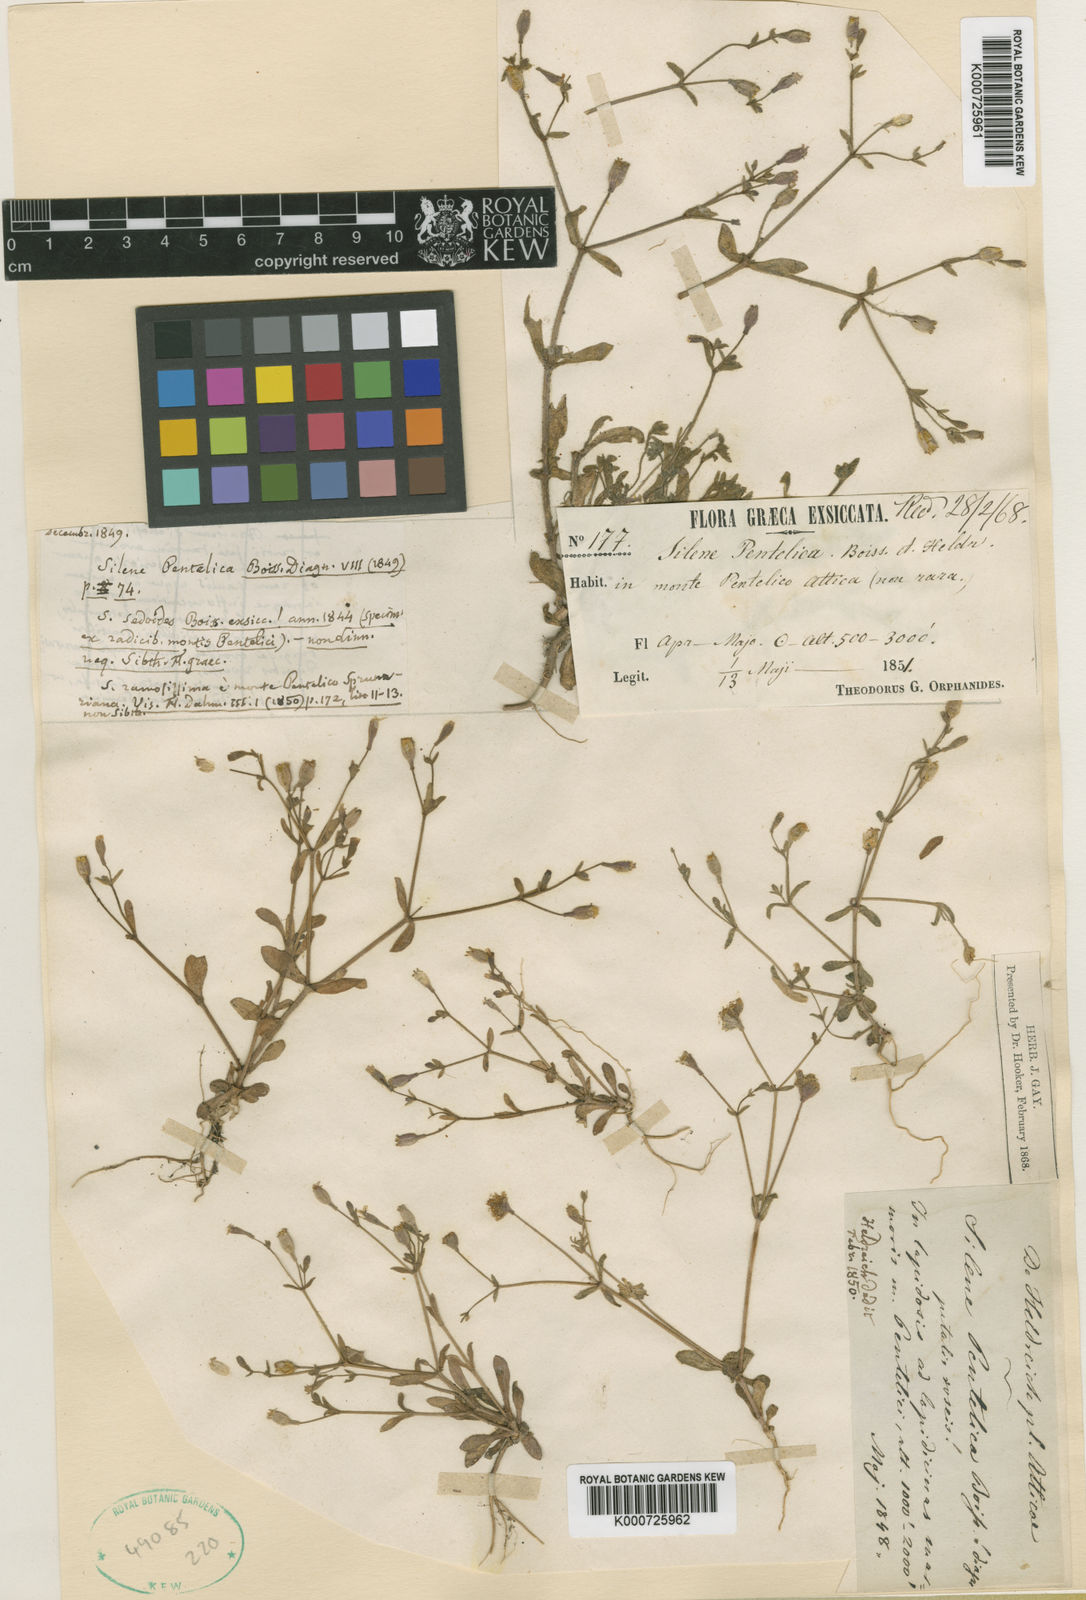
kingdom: Plantae
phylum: Tracheophyta
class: Magnoliopsida
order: Caryophyllales
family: Caryophyllaceae
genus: Silene
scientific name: Silene pentelica
